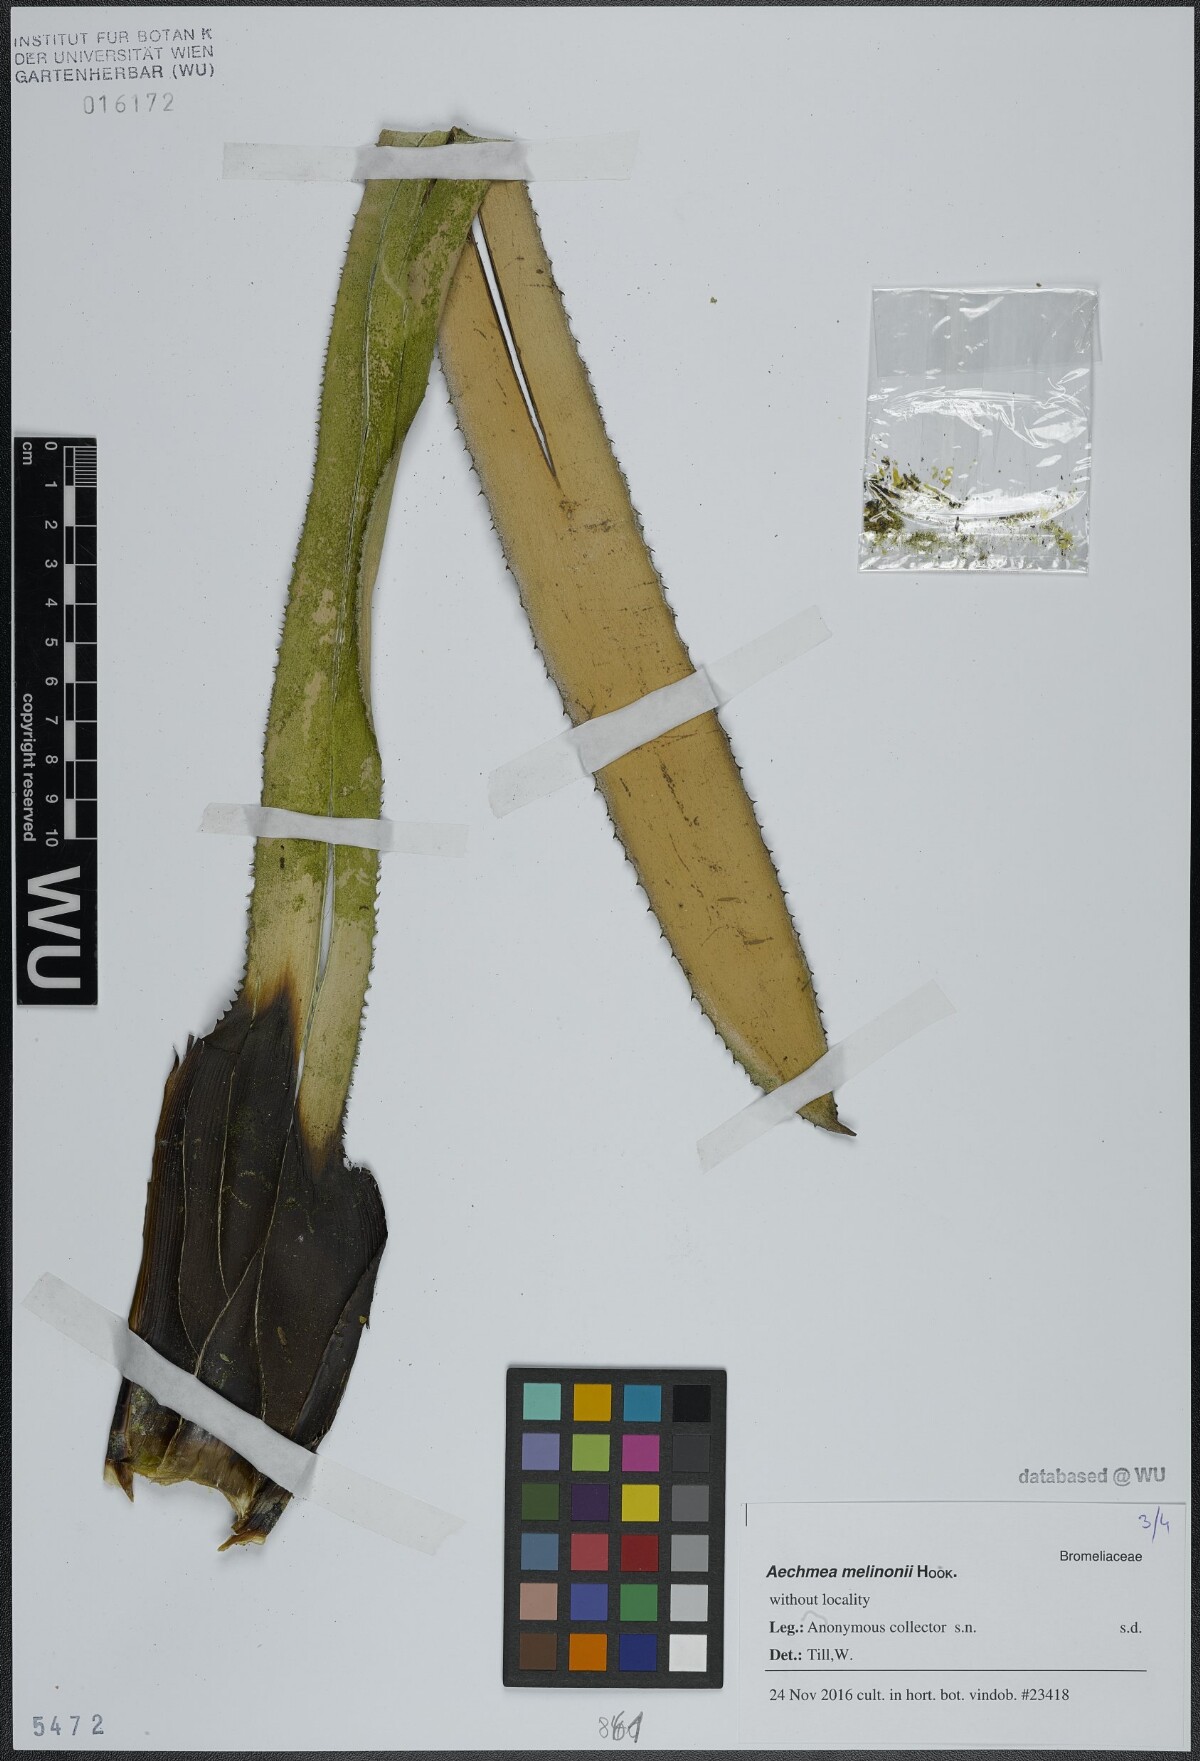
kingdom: Plantae
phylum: Tracheophyta
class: Liliopsida
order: Poales
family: Bromeliaceae
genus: Aechmea
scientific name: Aechmea melinonii
